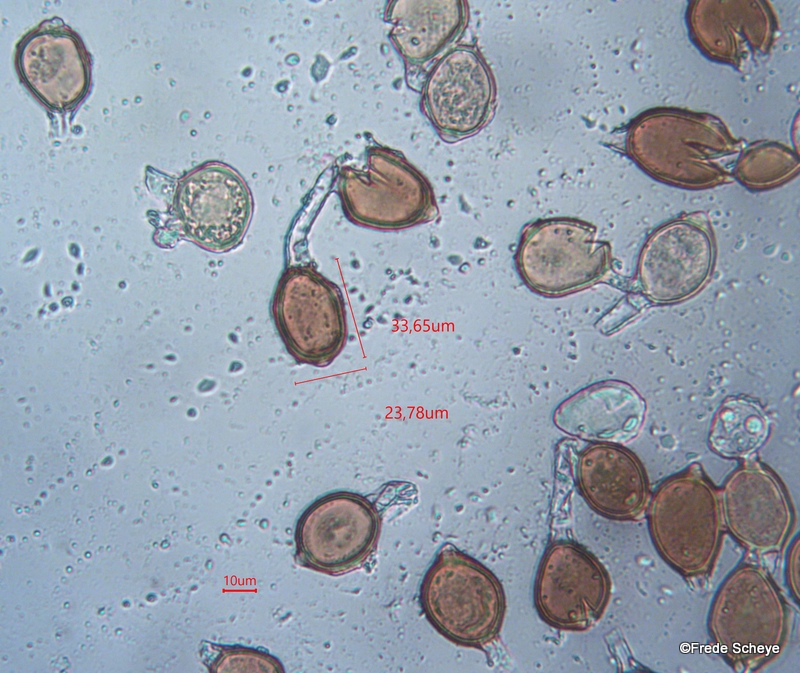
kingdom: Fungi
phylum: Basidiomycota
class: Pucciniomycetes
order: Pucciniales
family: Pucciniaceae
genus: Uromyces
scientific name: Uromyces ficariae
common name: vorterod-encellerust
